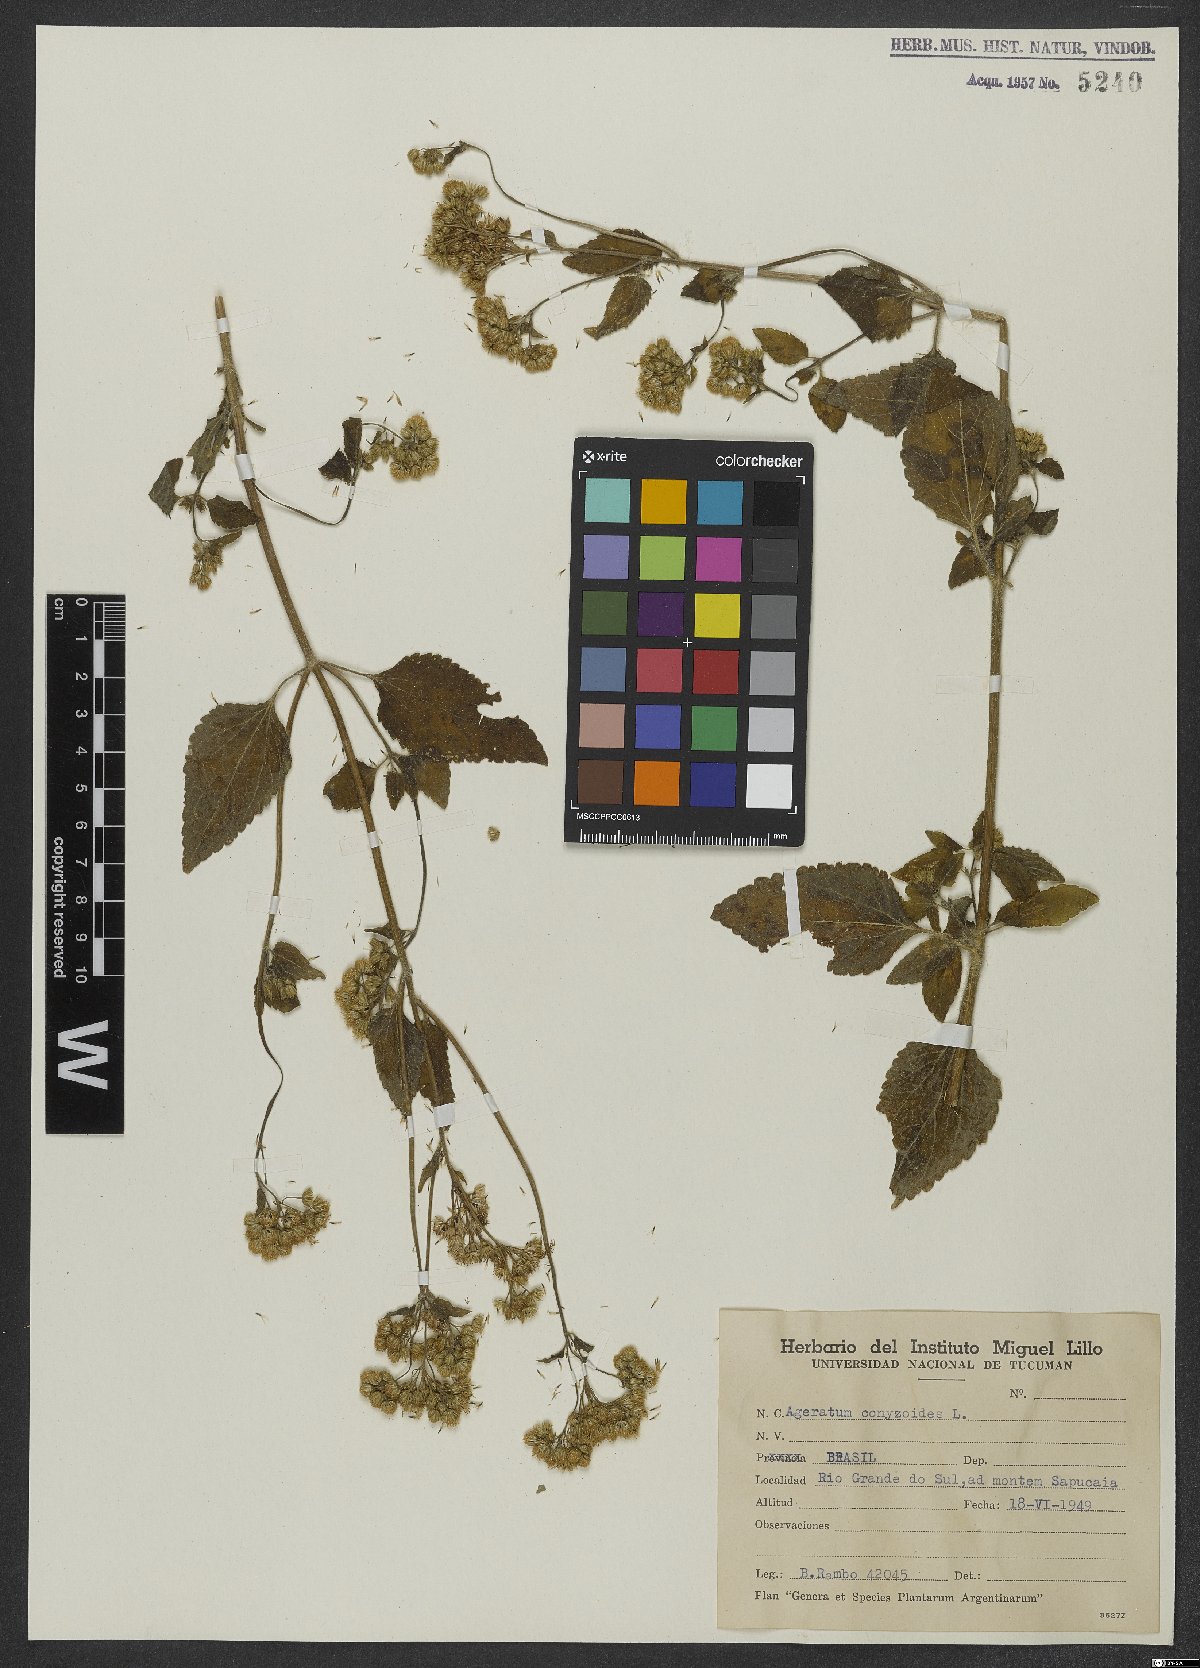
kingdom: Plantae
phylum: Tracheophyta
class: Magnoliopsida
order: Asterales
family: Asteraceae
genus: Ageratum
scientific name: Ageratum conyzoides
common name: Tropical whiteweed
